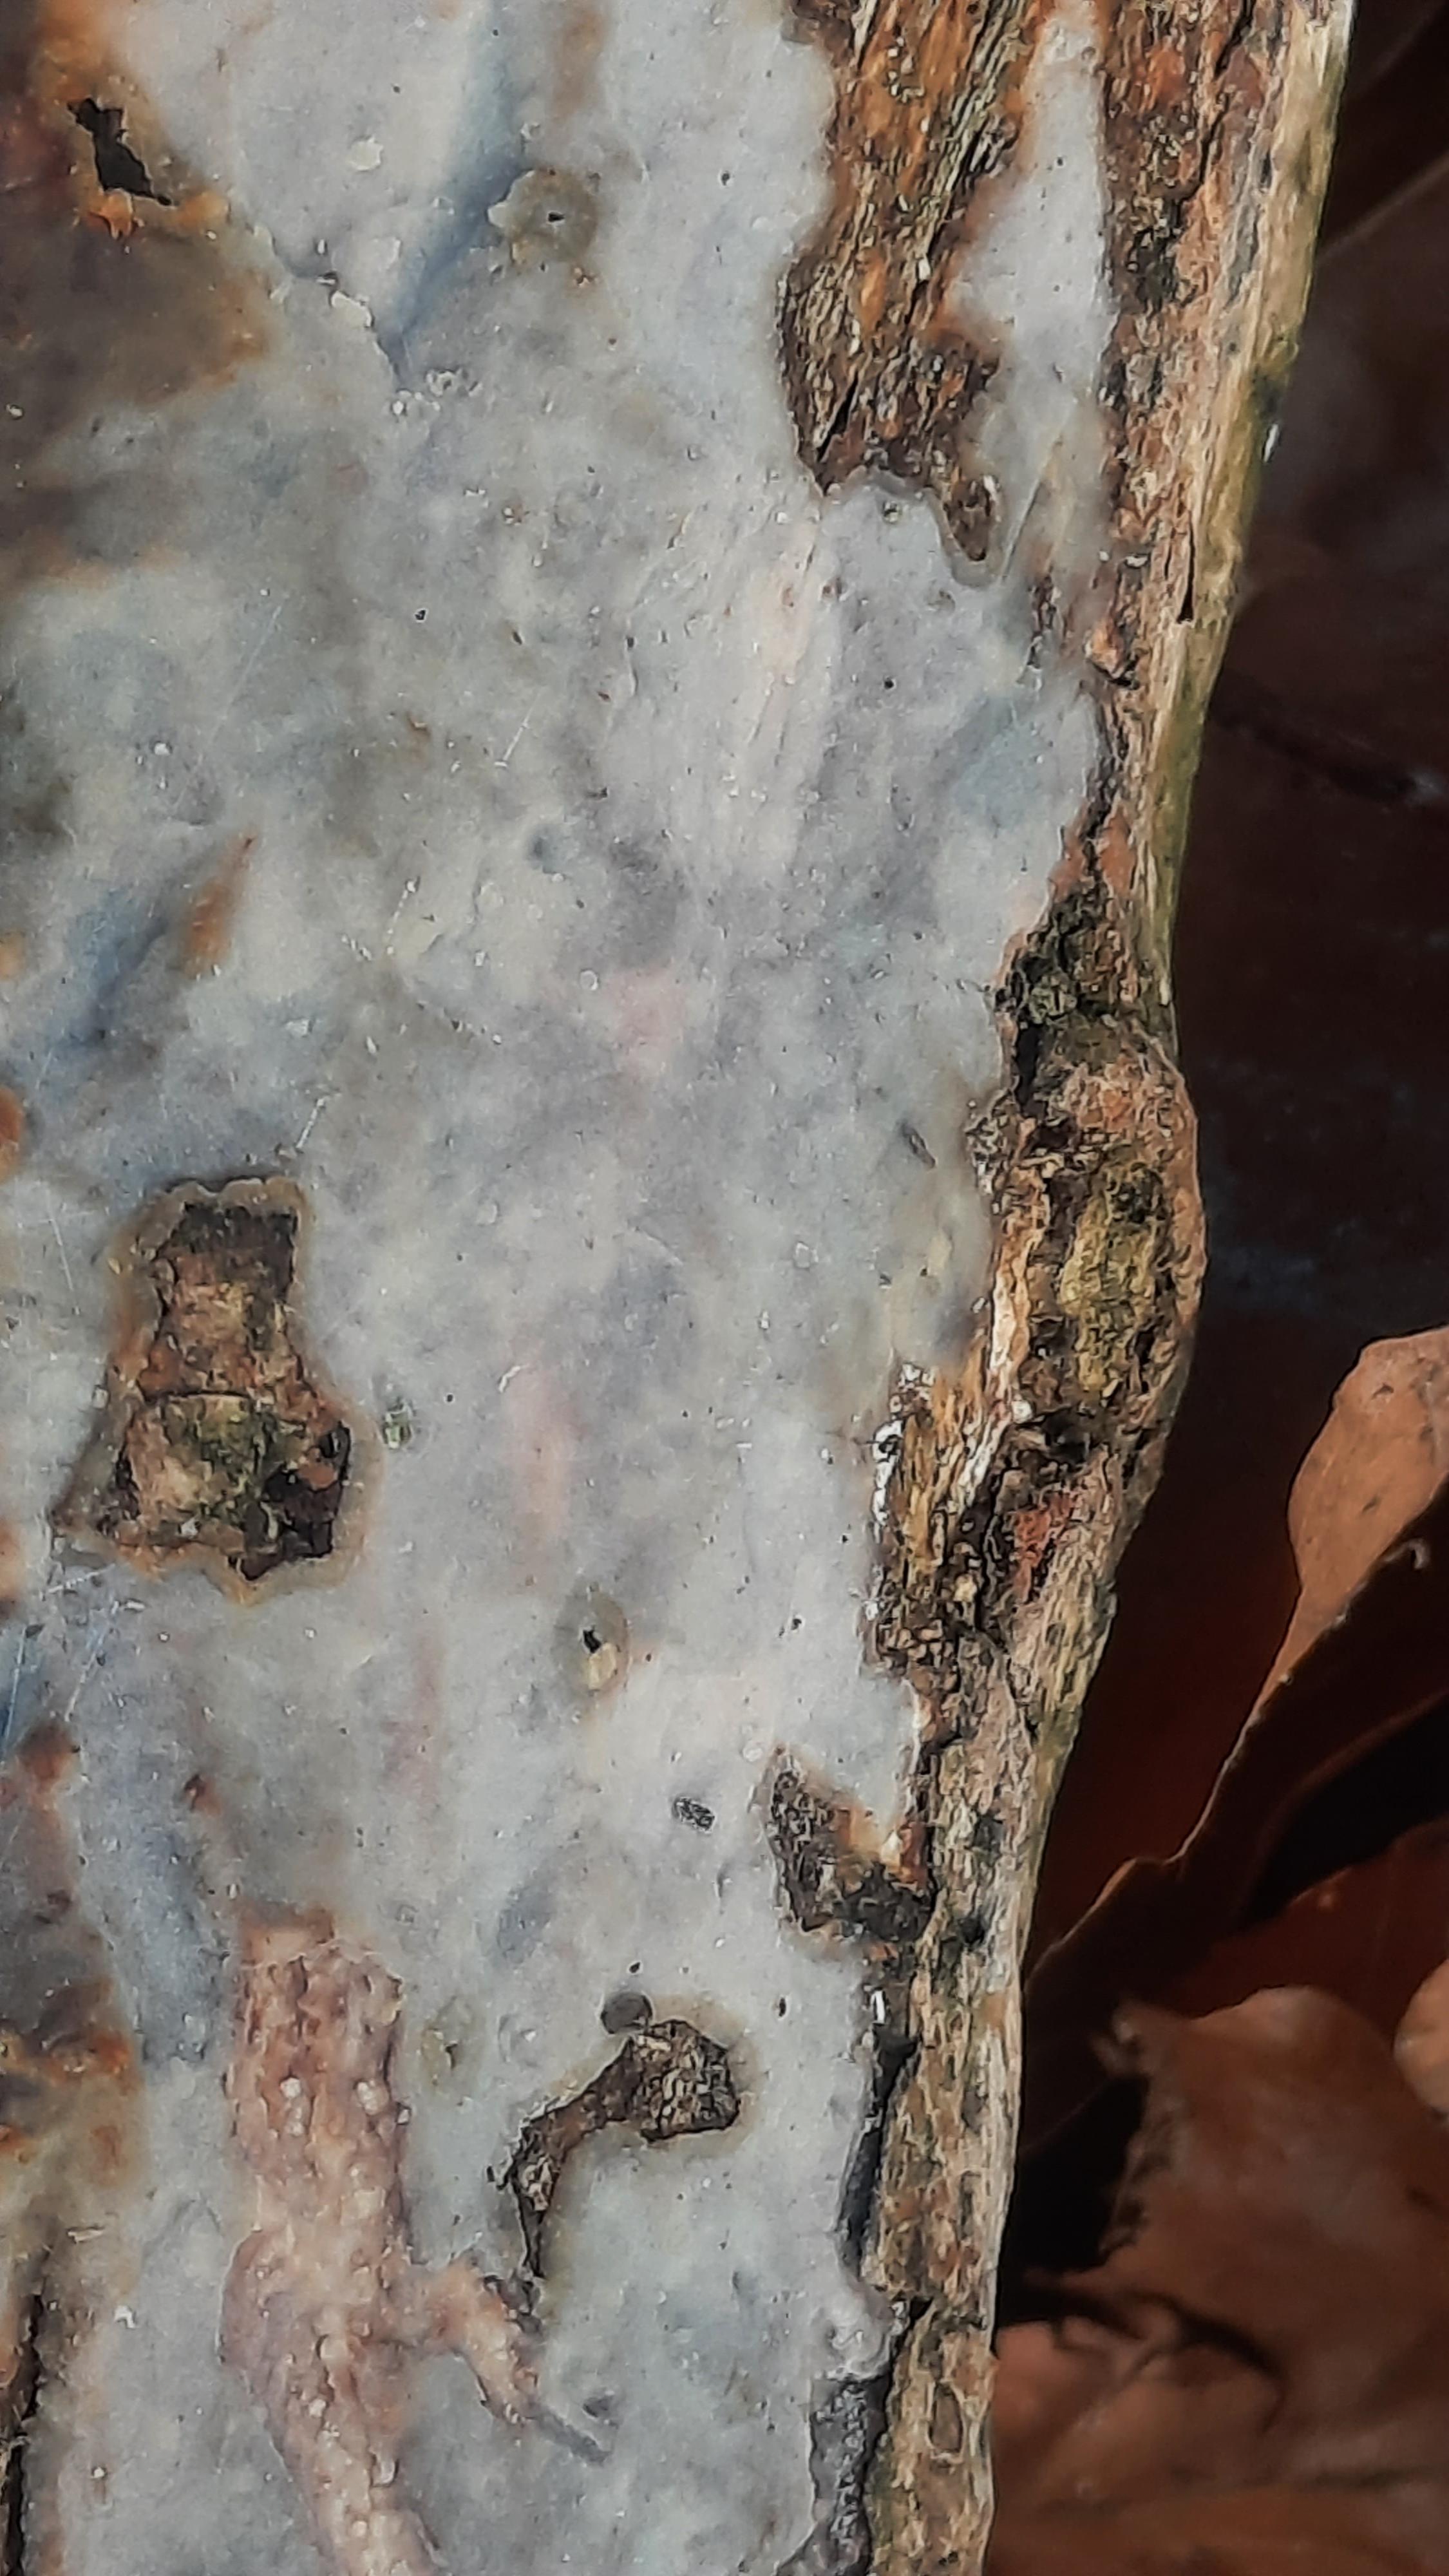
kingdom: Fungi
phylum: Basidiomycota
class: Agaricomycetes
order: Corticiales
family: Corticiaceae
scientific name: Corticiaceae
